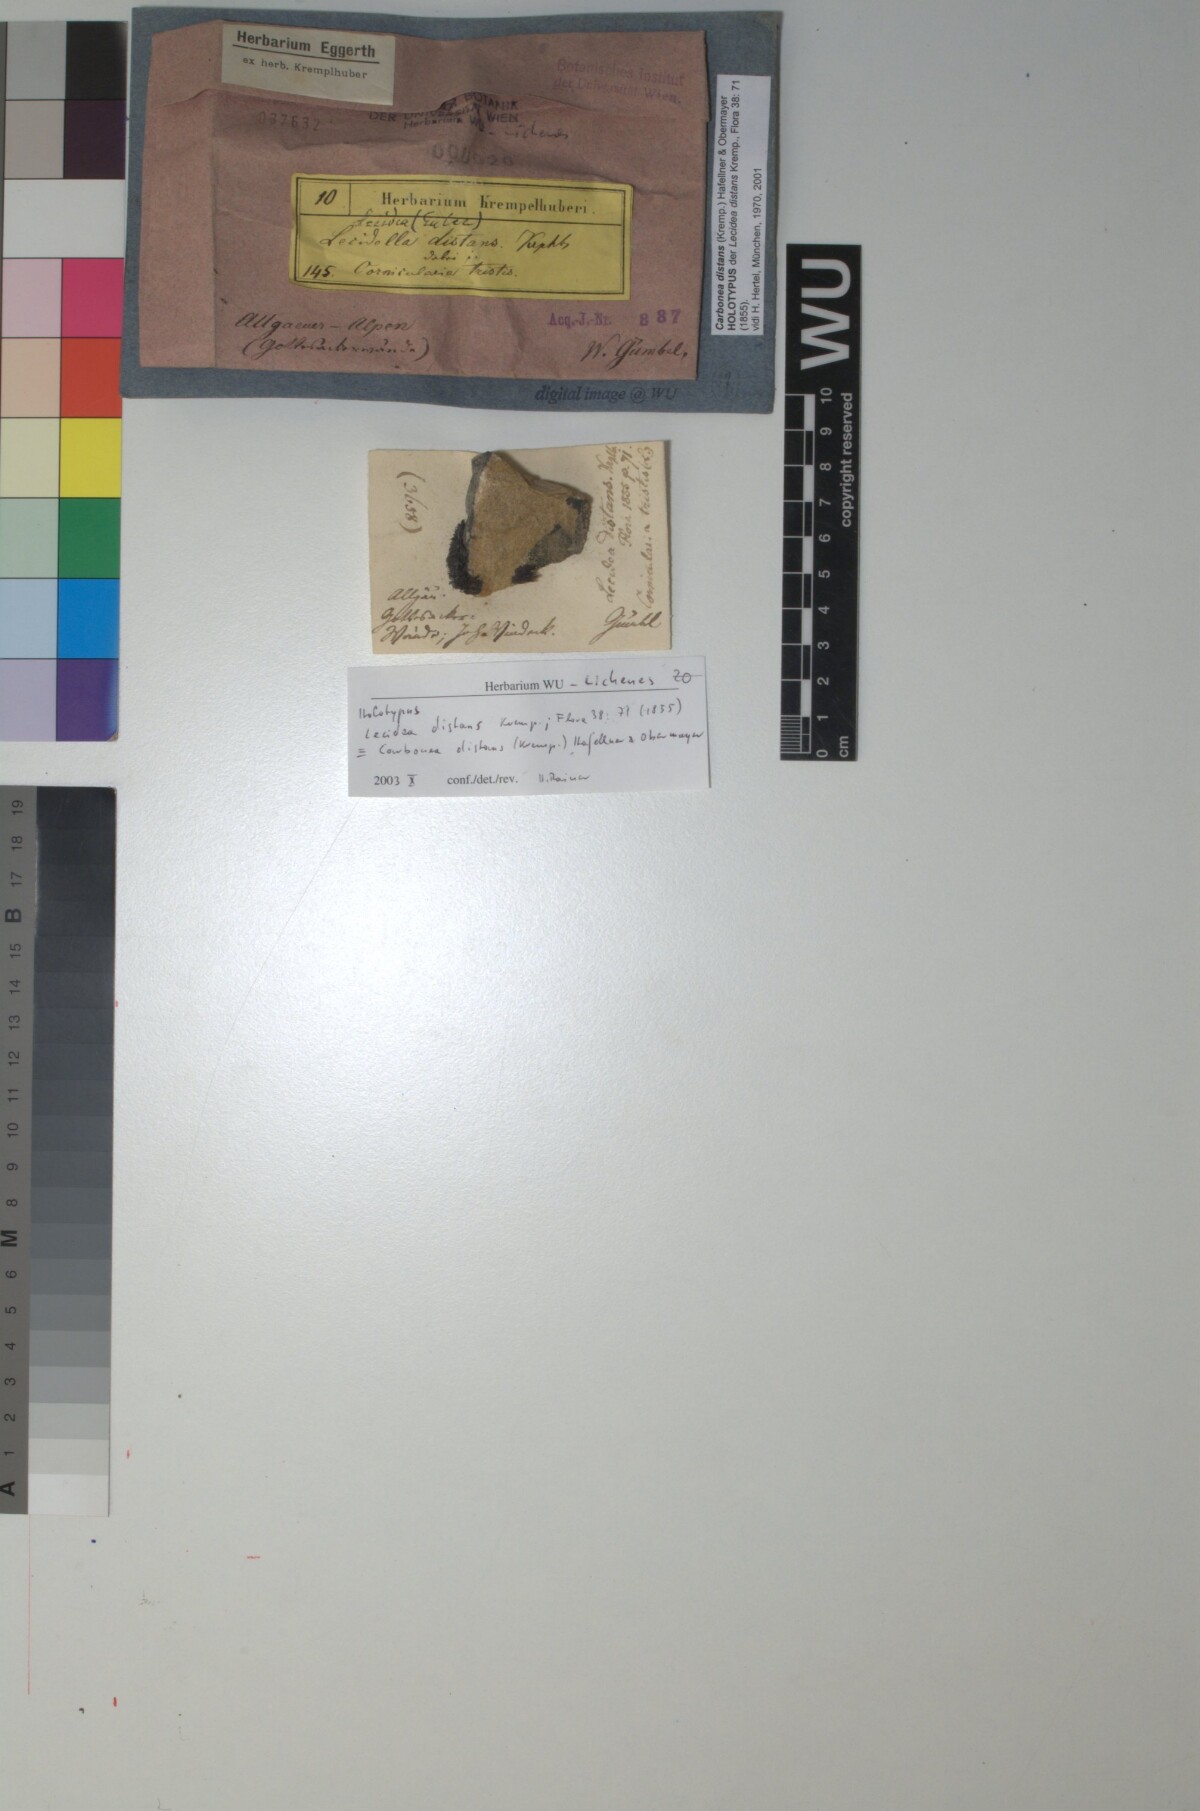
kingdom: Fungi
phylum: Ascomycota
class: Lecanoromycetes
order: Lecanorales
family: Lecanoraceae
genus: Lecidella
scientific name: Lecidella pulveracea
